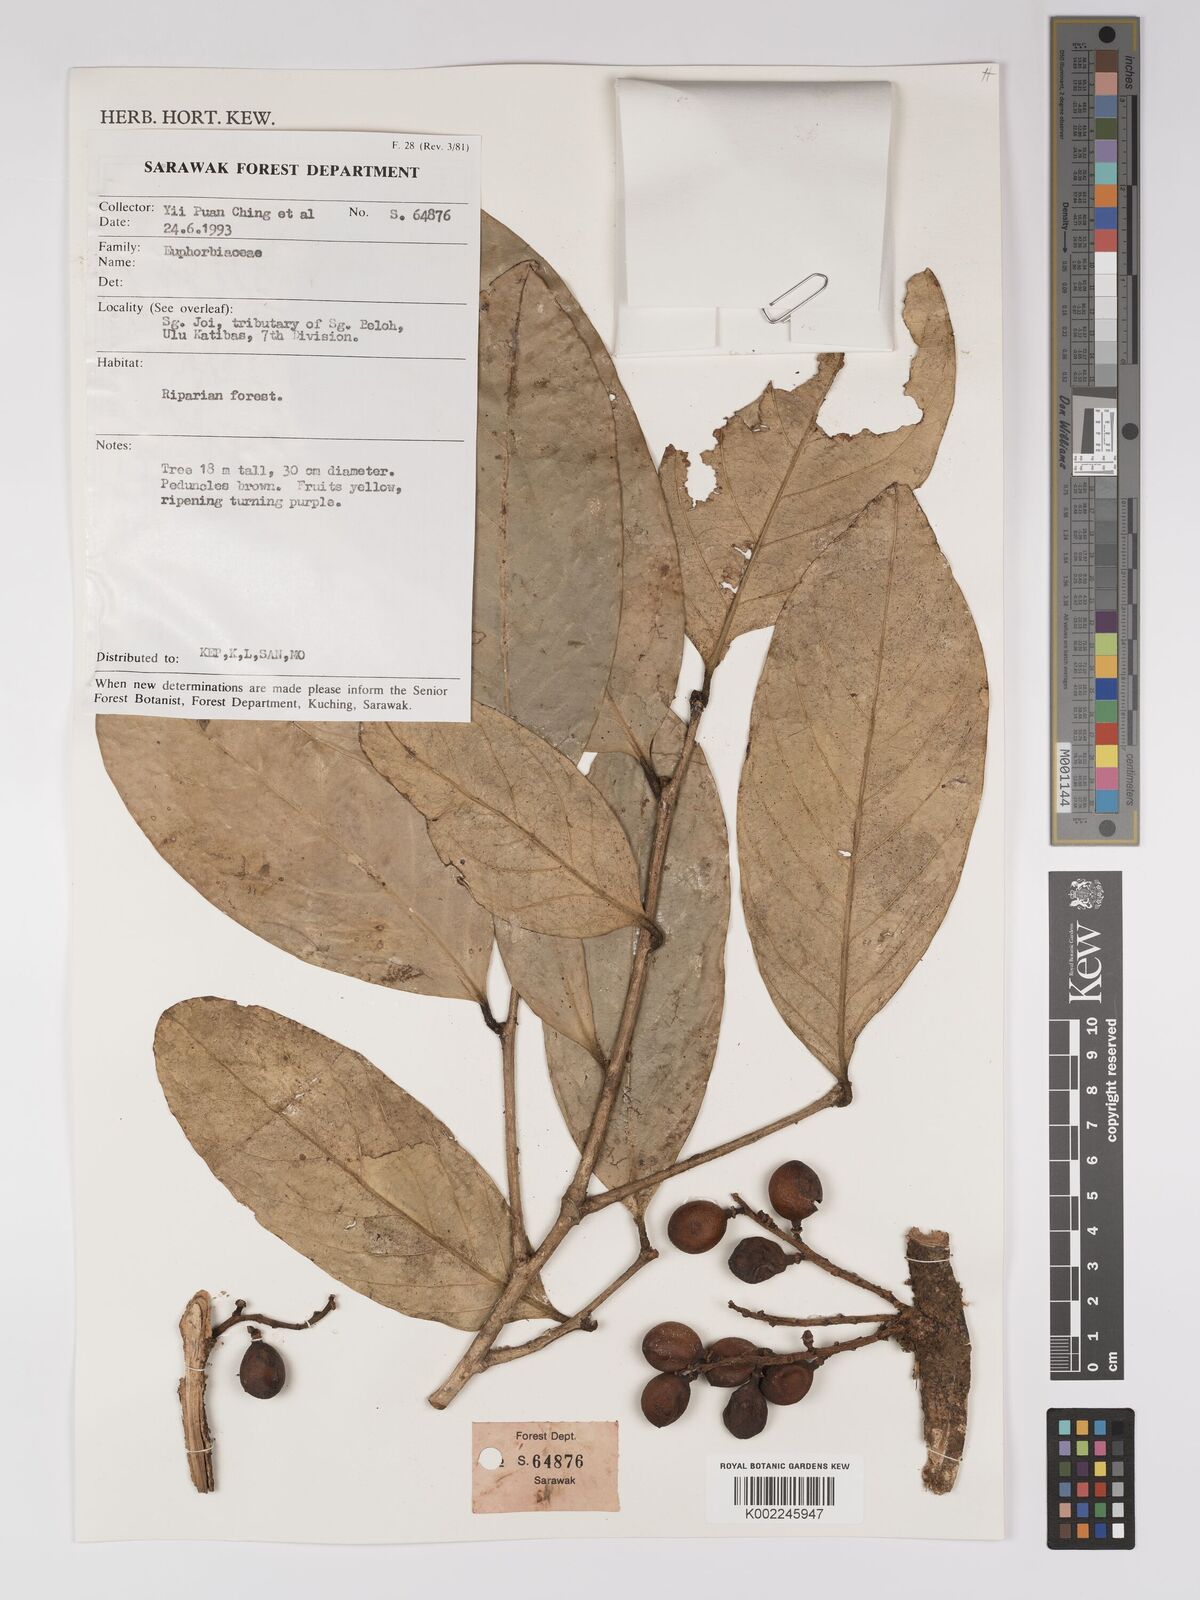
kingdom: Plantae
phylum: Tracheophyta
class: Magnoliopsida
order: Malpighiales
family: Euphorbiaceae
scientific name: Euphorbiaceae
